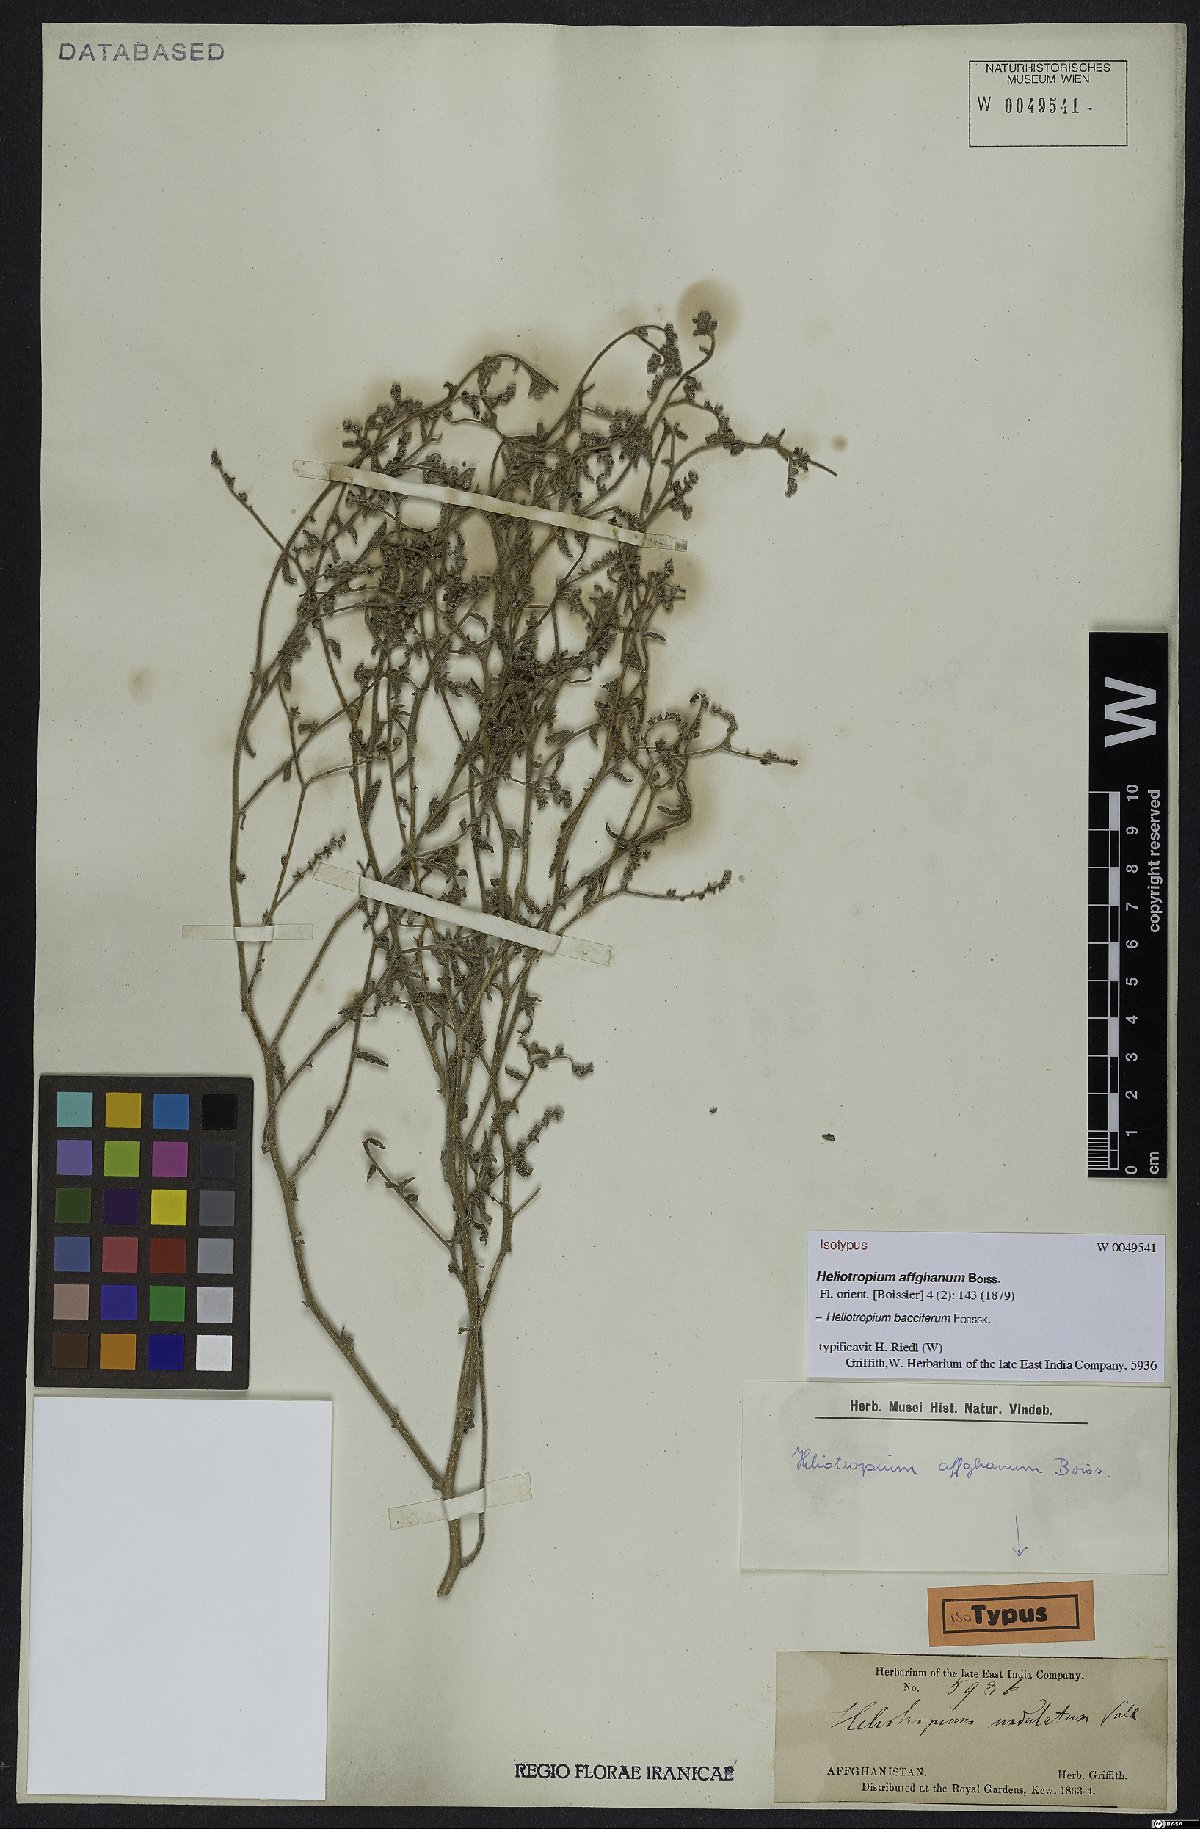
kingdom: Plantae
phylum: Tracheophyta
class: Magnoliopsida
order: Boraginales
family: Heliotropiaceae
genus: Heliotropium
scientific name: Heliotropium bacciferum
